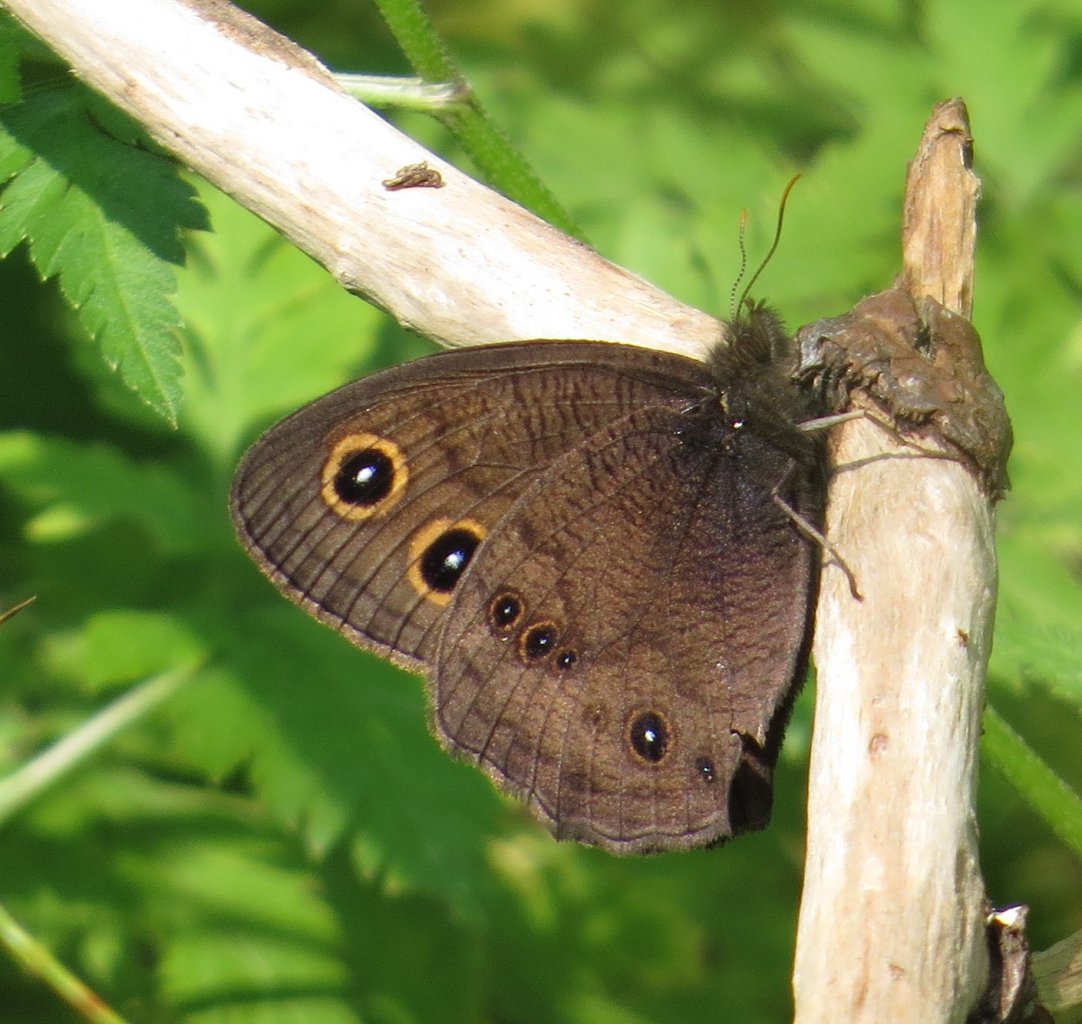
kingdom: Animalia
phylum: Arthropoda
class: Insecta
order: Lepidoptera
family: Nymphalidae
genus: Cercyonis
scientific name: Cercyonis pegala
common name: Common Wood-Nymph
